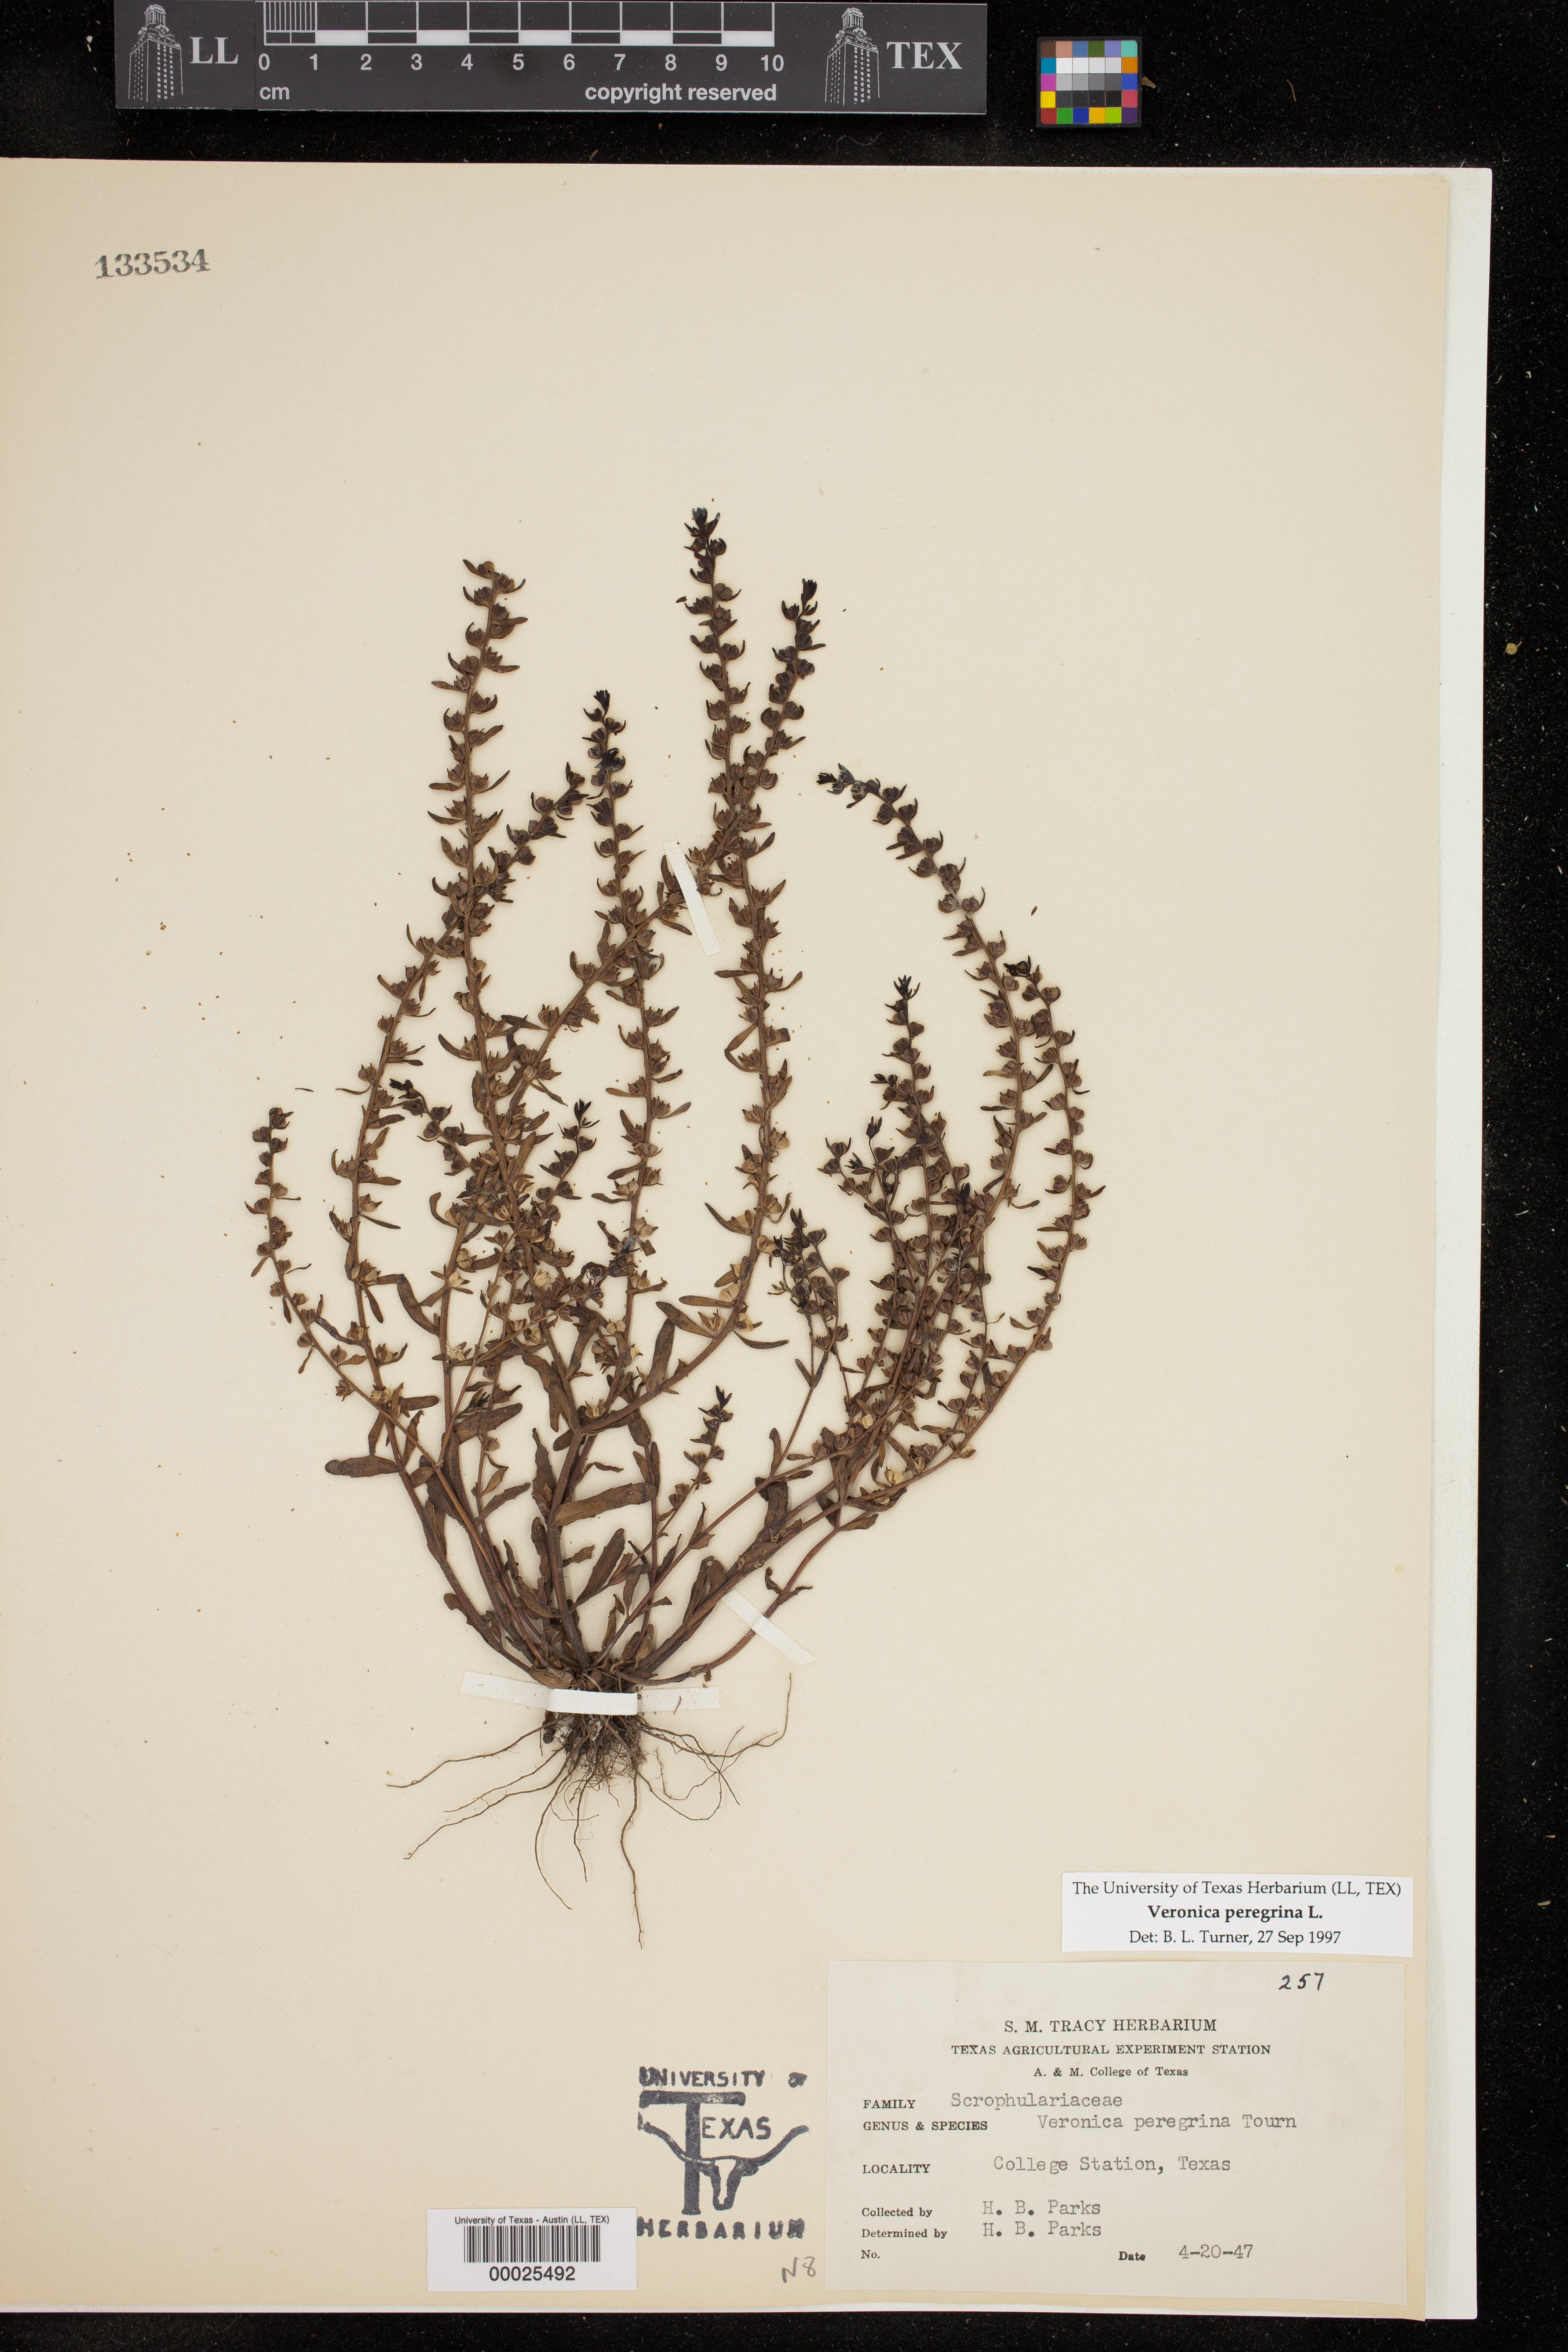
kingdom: Plantae
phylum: Tracheophyta
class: Magnoliopsida
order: Lamiales
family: Plantaginaceae
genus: Veronica
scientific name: Veronica peregrina
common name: Neckweed
